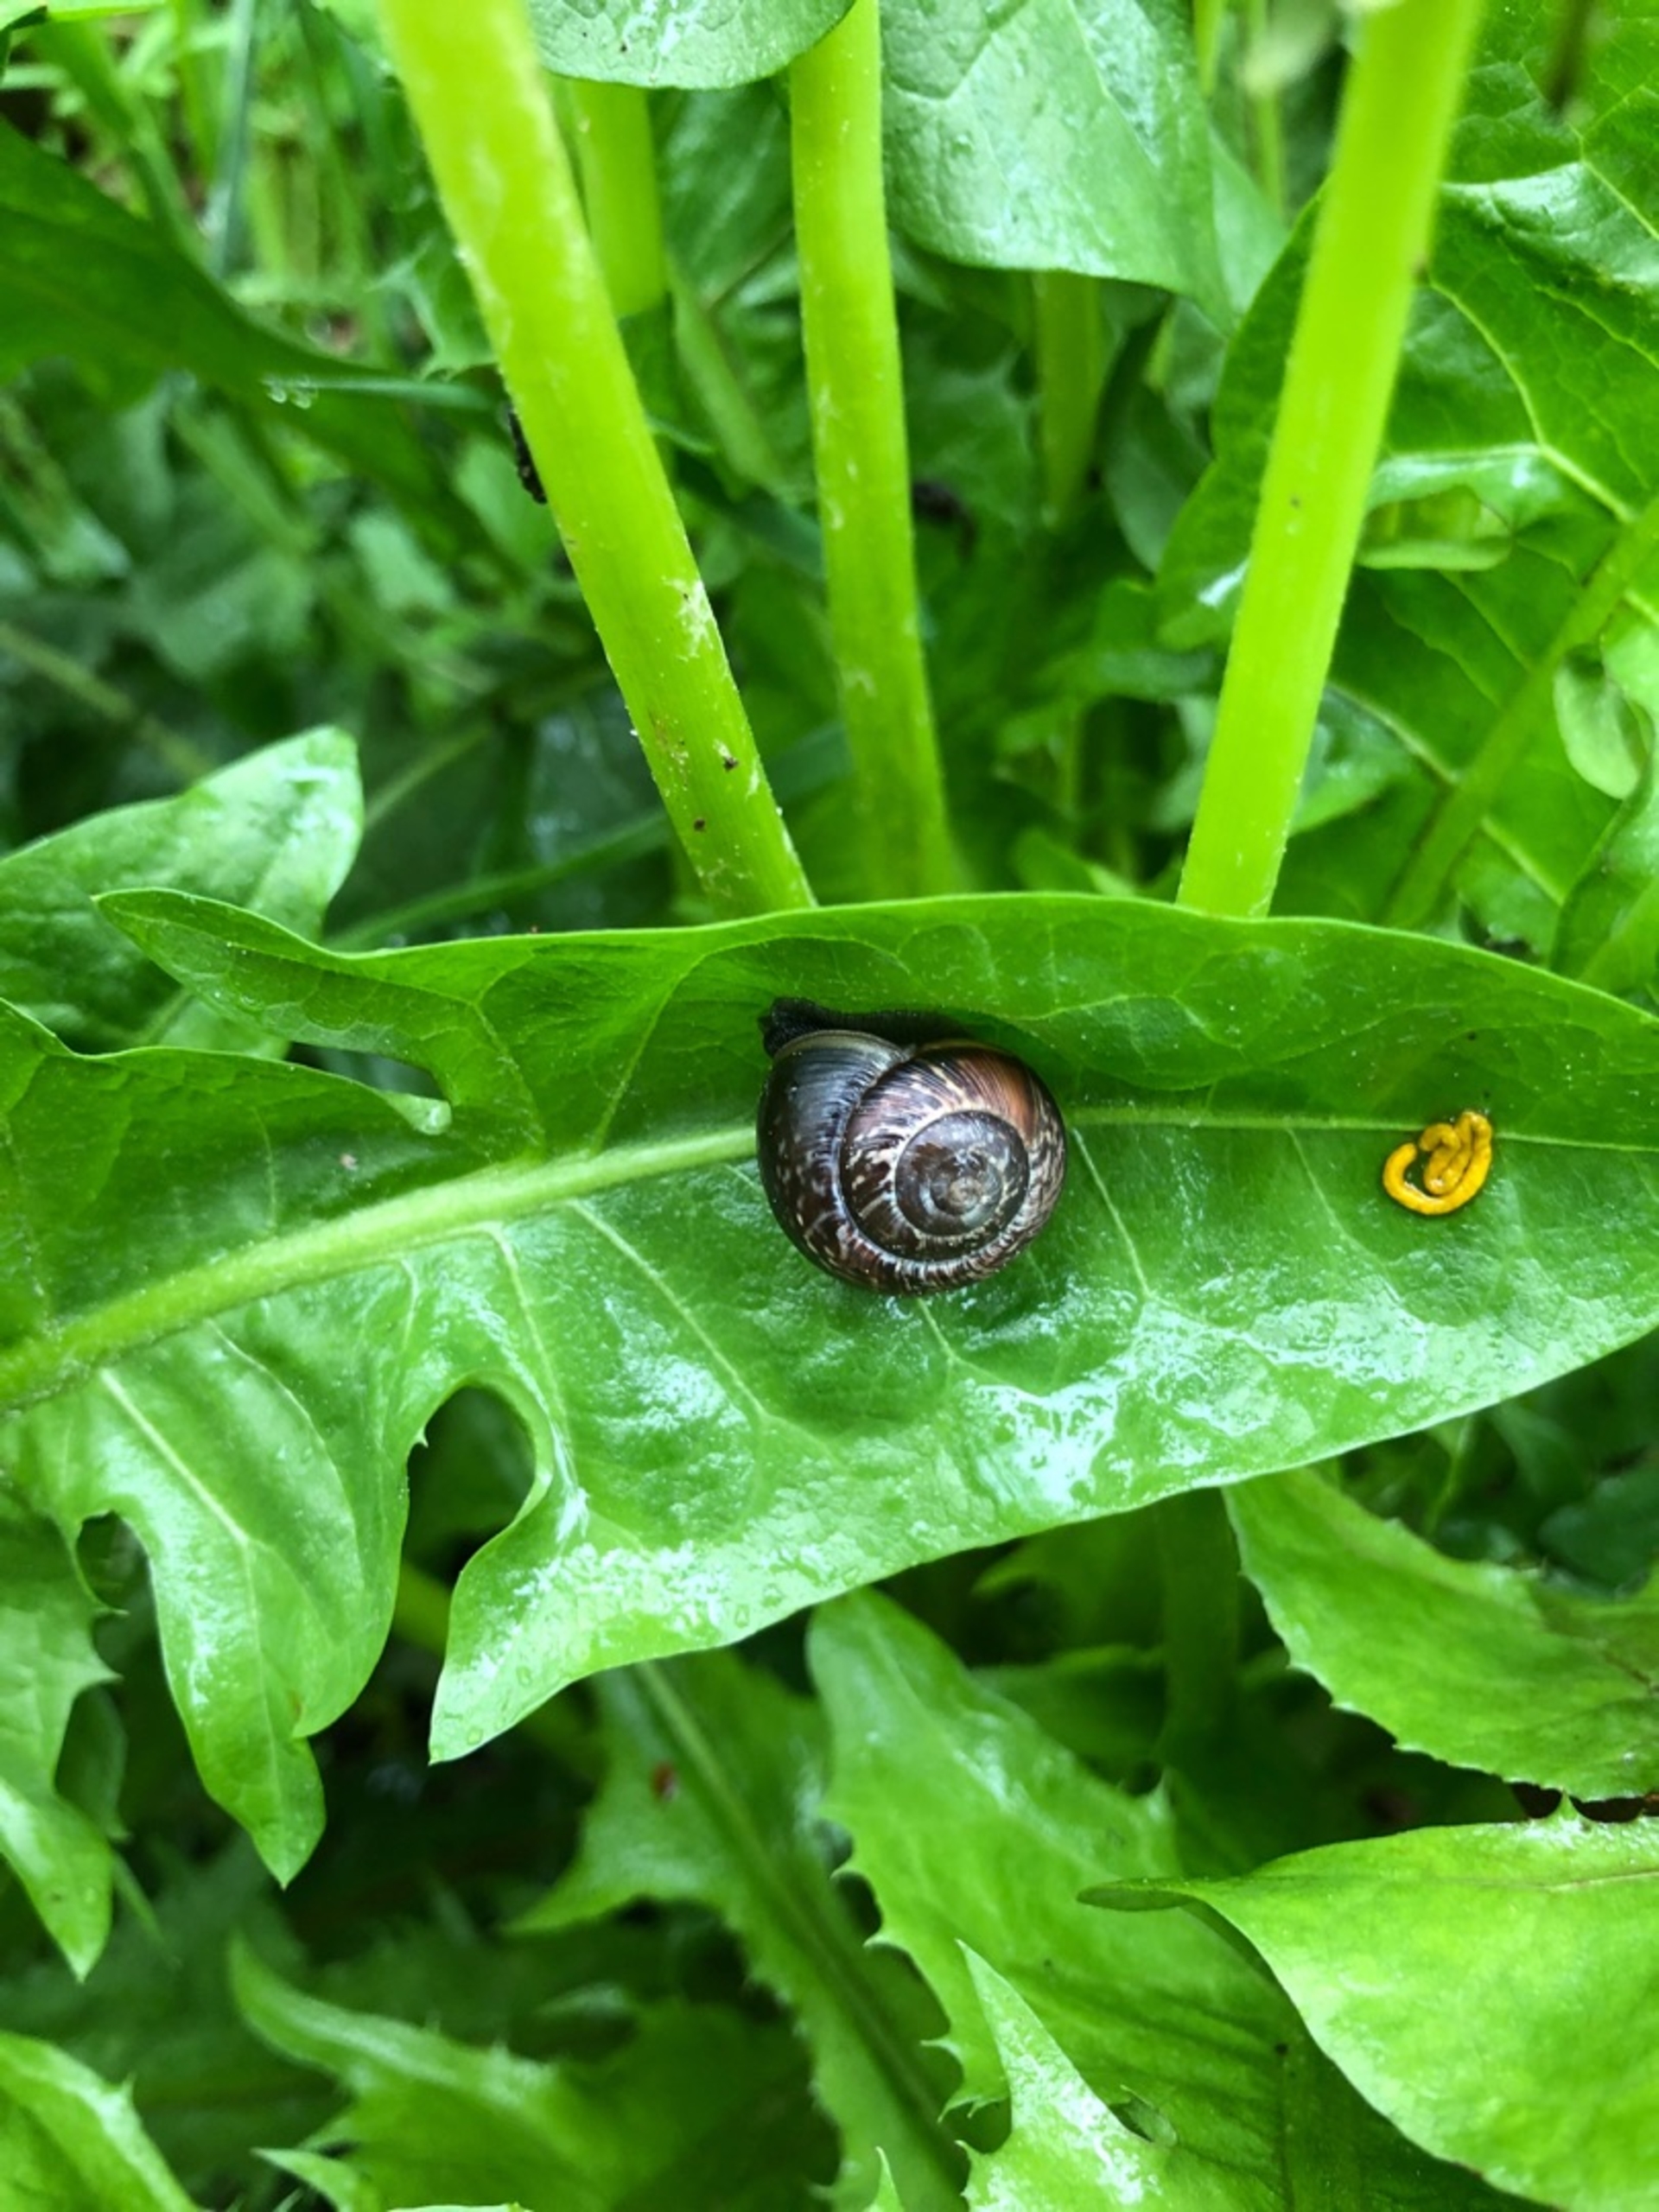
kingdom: Animalia
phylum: Mollusca
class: Gastropoda
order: Stylommatophora
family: Helicidae
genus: Arianta
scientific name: Arianta arbustorum
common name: Kratsnegl
